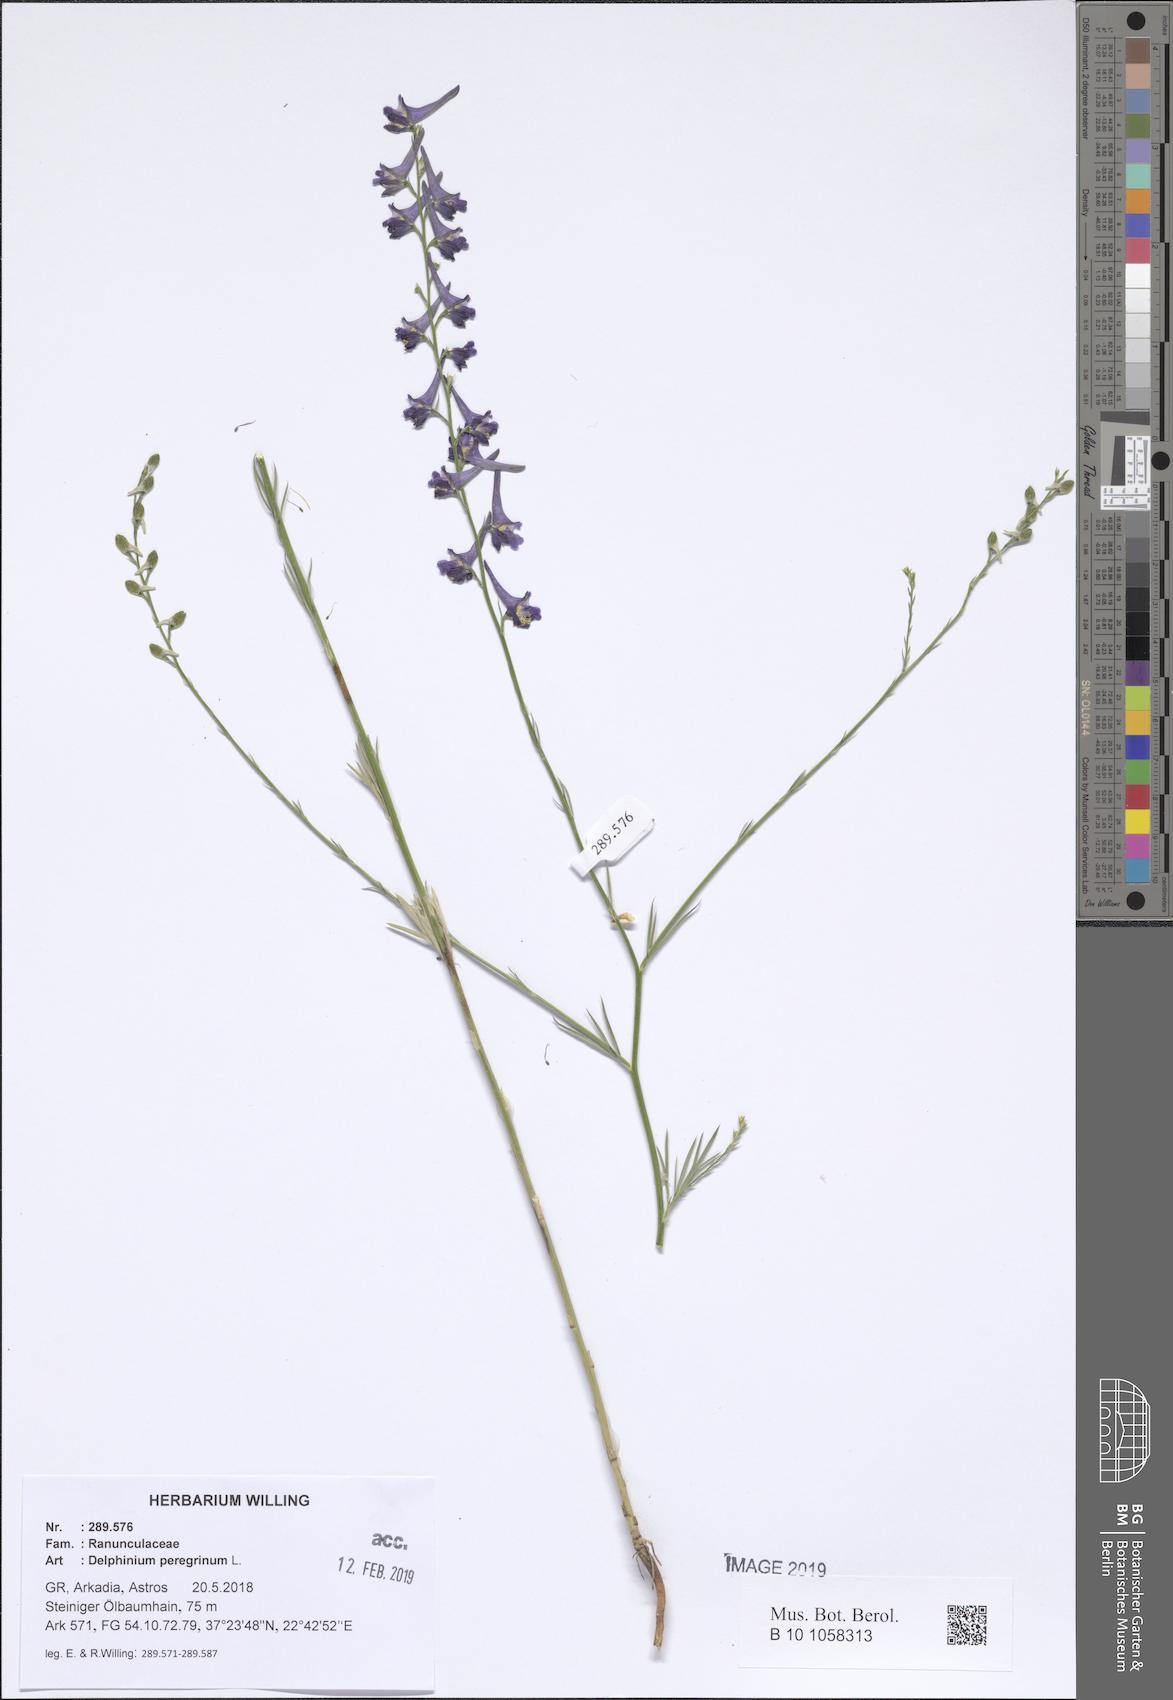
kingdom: Plantae
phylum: Tracheophyta
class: Magnoliopsida
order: Ranunculales
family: Ranunculaceae
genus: Delphinium
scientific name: Delphinium peregrinum
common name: Violet larkspur
